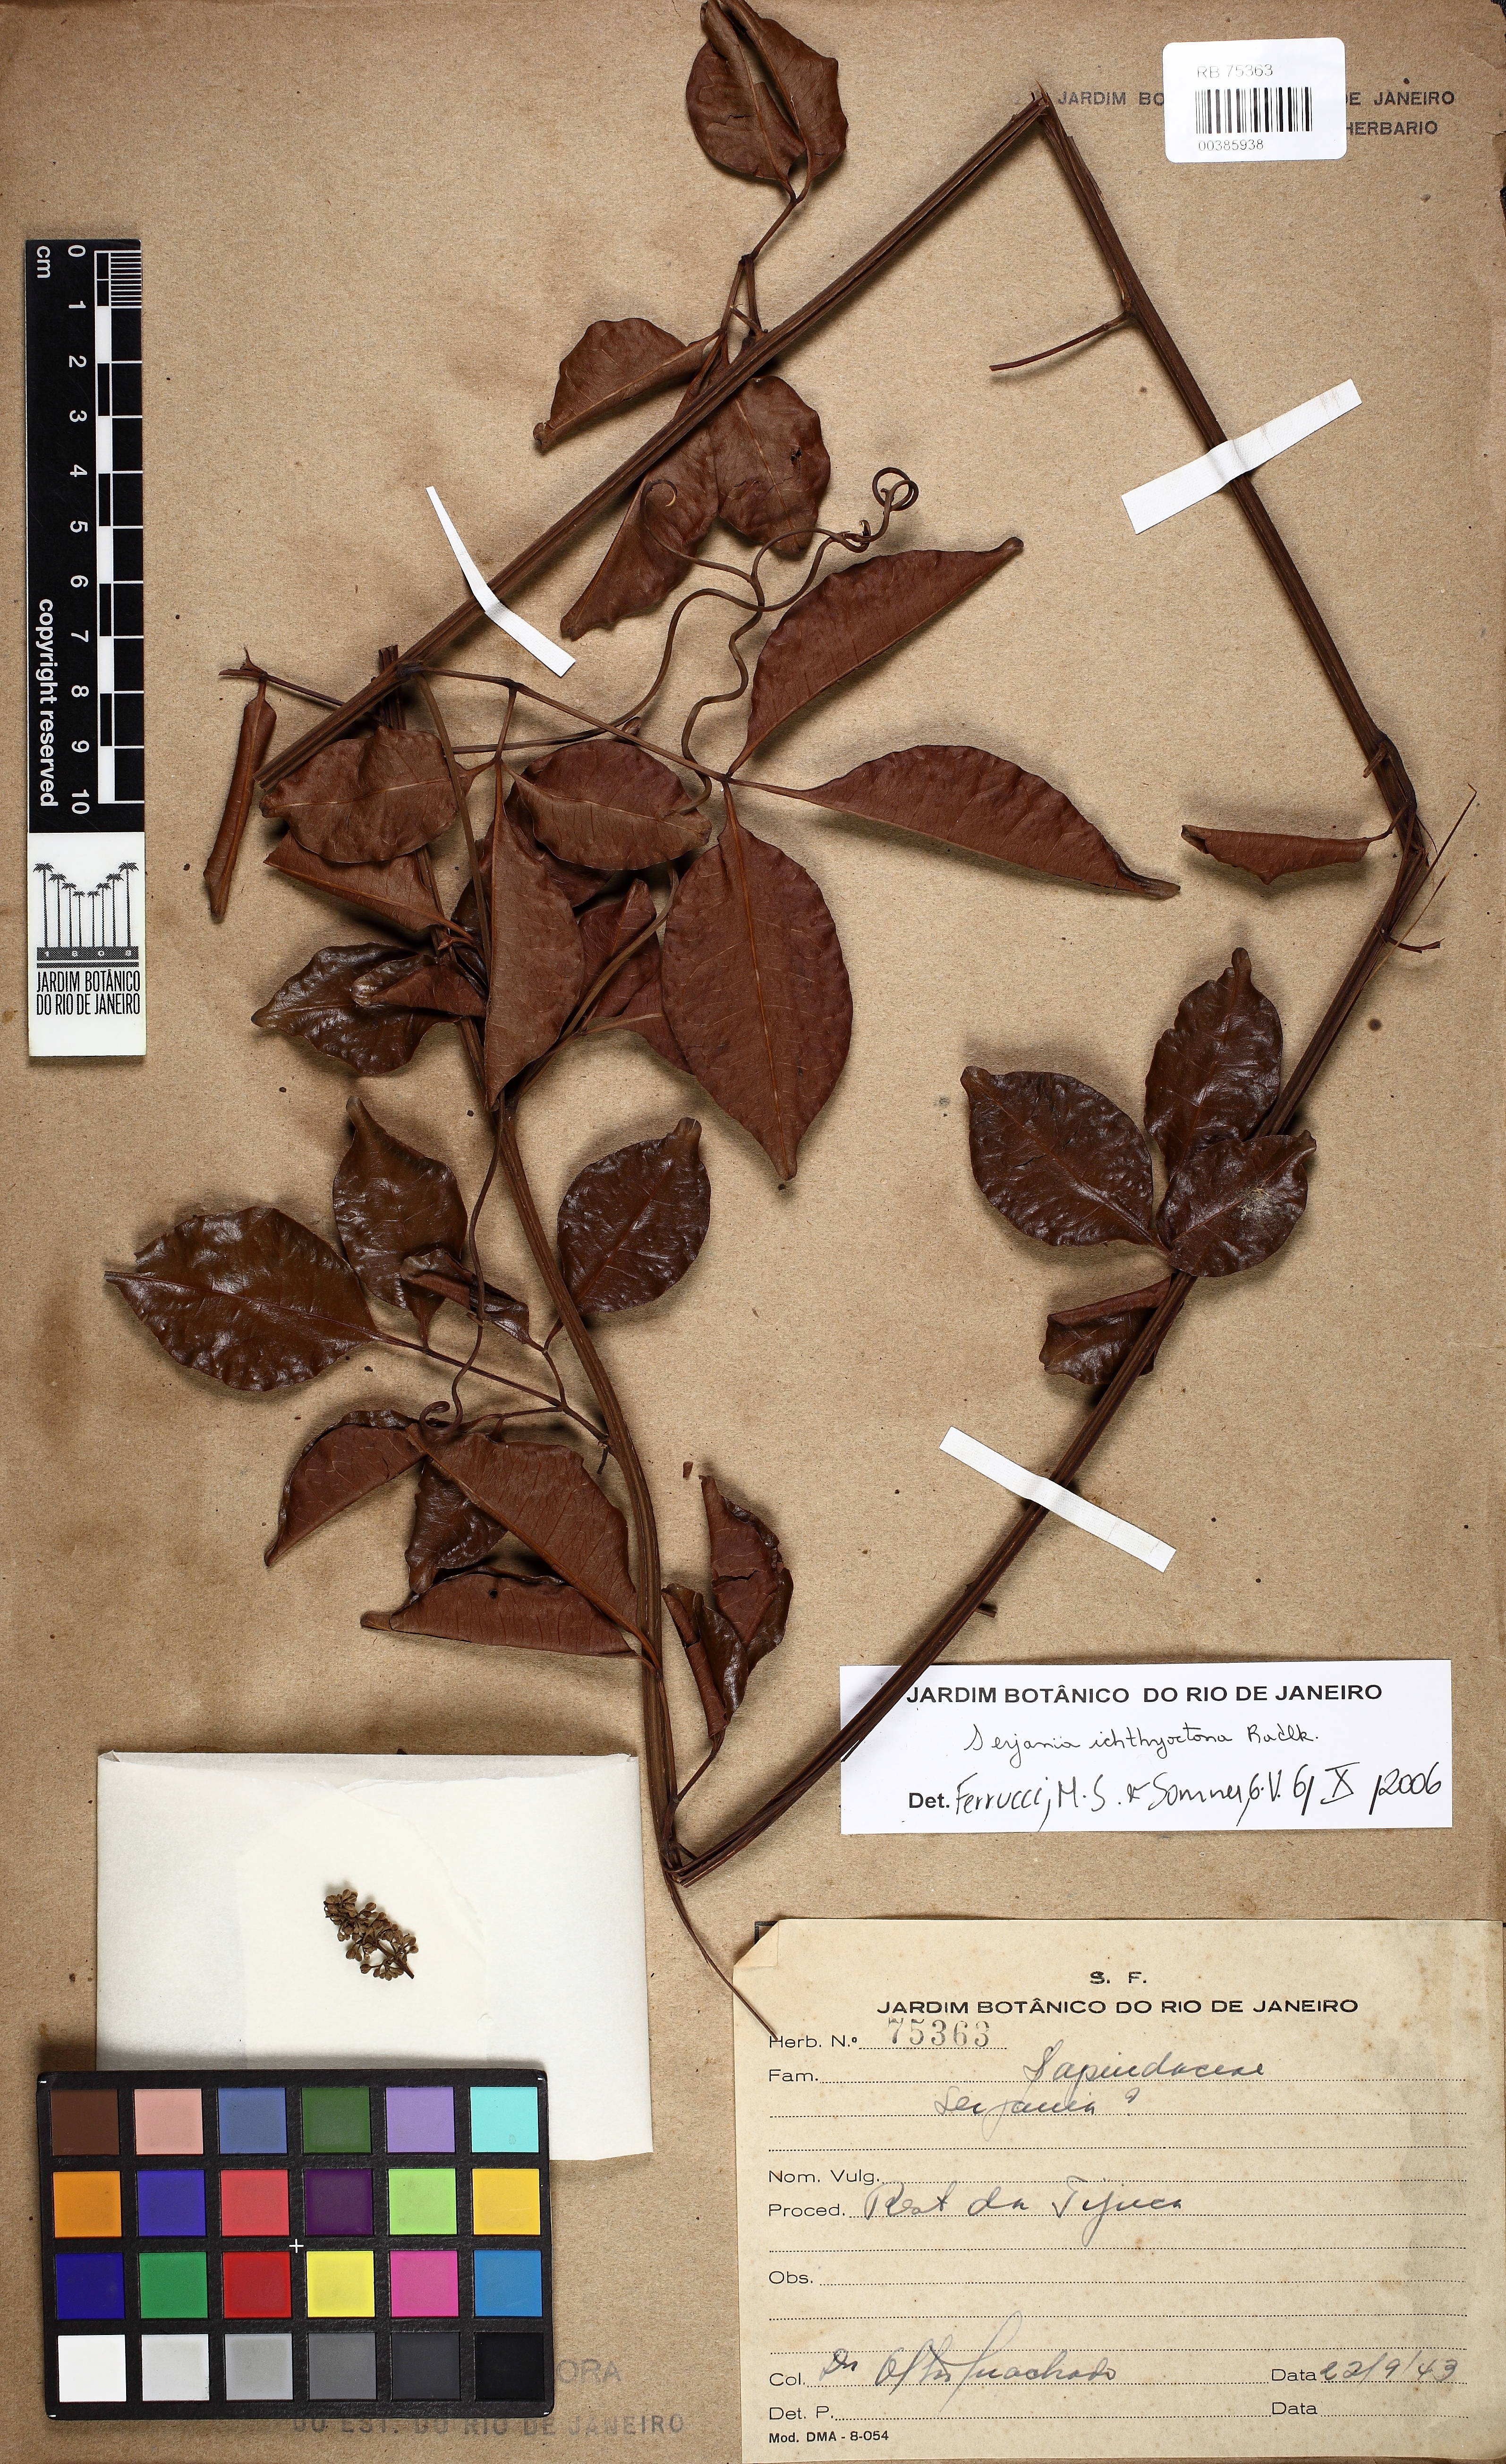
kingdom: Plantae
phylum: Tracheophyta
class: Magnoliopsida
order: Sapindales
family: Sapindaceae
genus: Serjania
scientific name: Serjania ichthyctona
